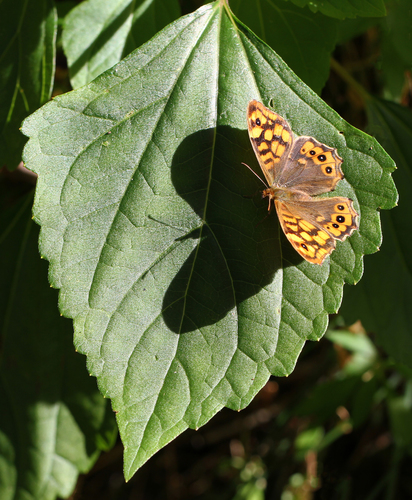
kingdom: Animalia
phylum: Arthropoda
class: Insecta
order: Lepidoptera
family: Nymphalidae
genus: Pararge
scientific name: Pararge
